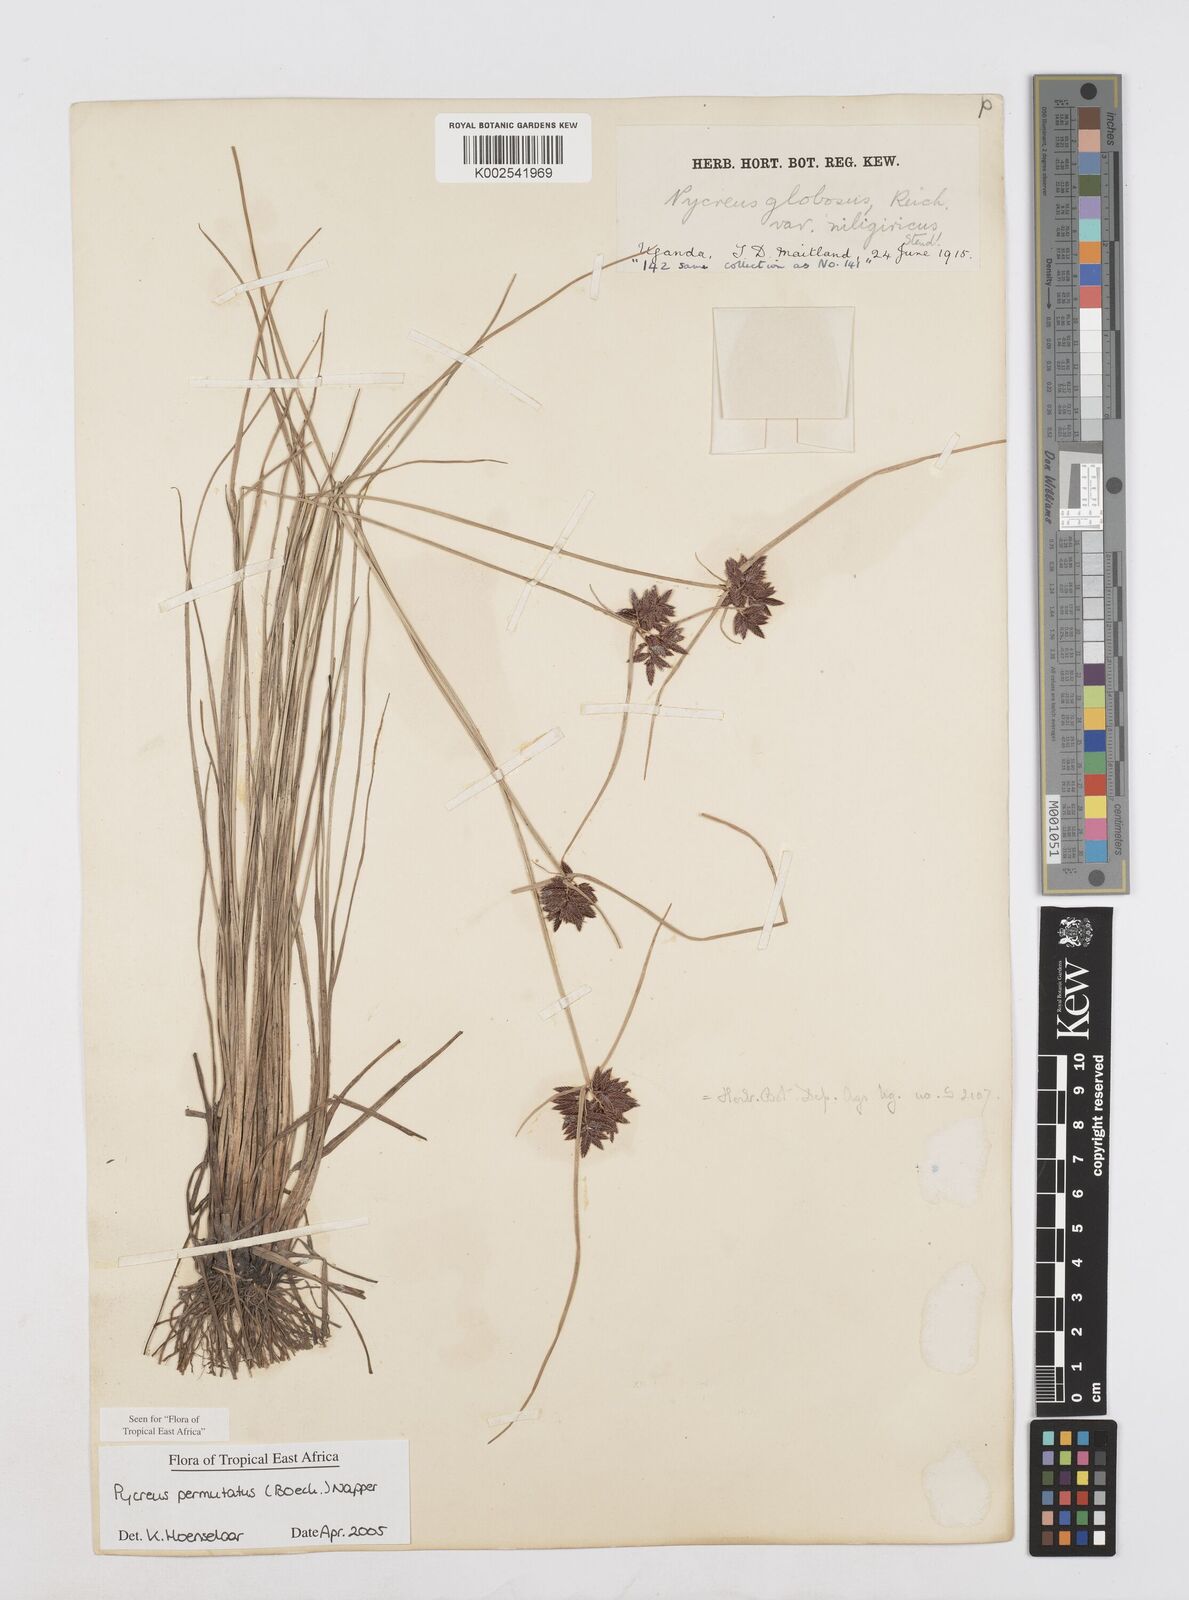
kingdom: Plantae
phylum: Tracheophyta
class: Liliopsida
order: Poales
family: Cyperaceae
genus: Cyperus
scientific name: Cyperus nigricans
